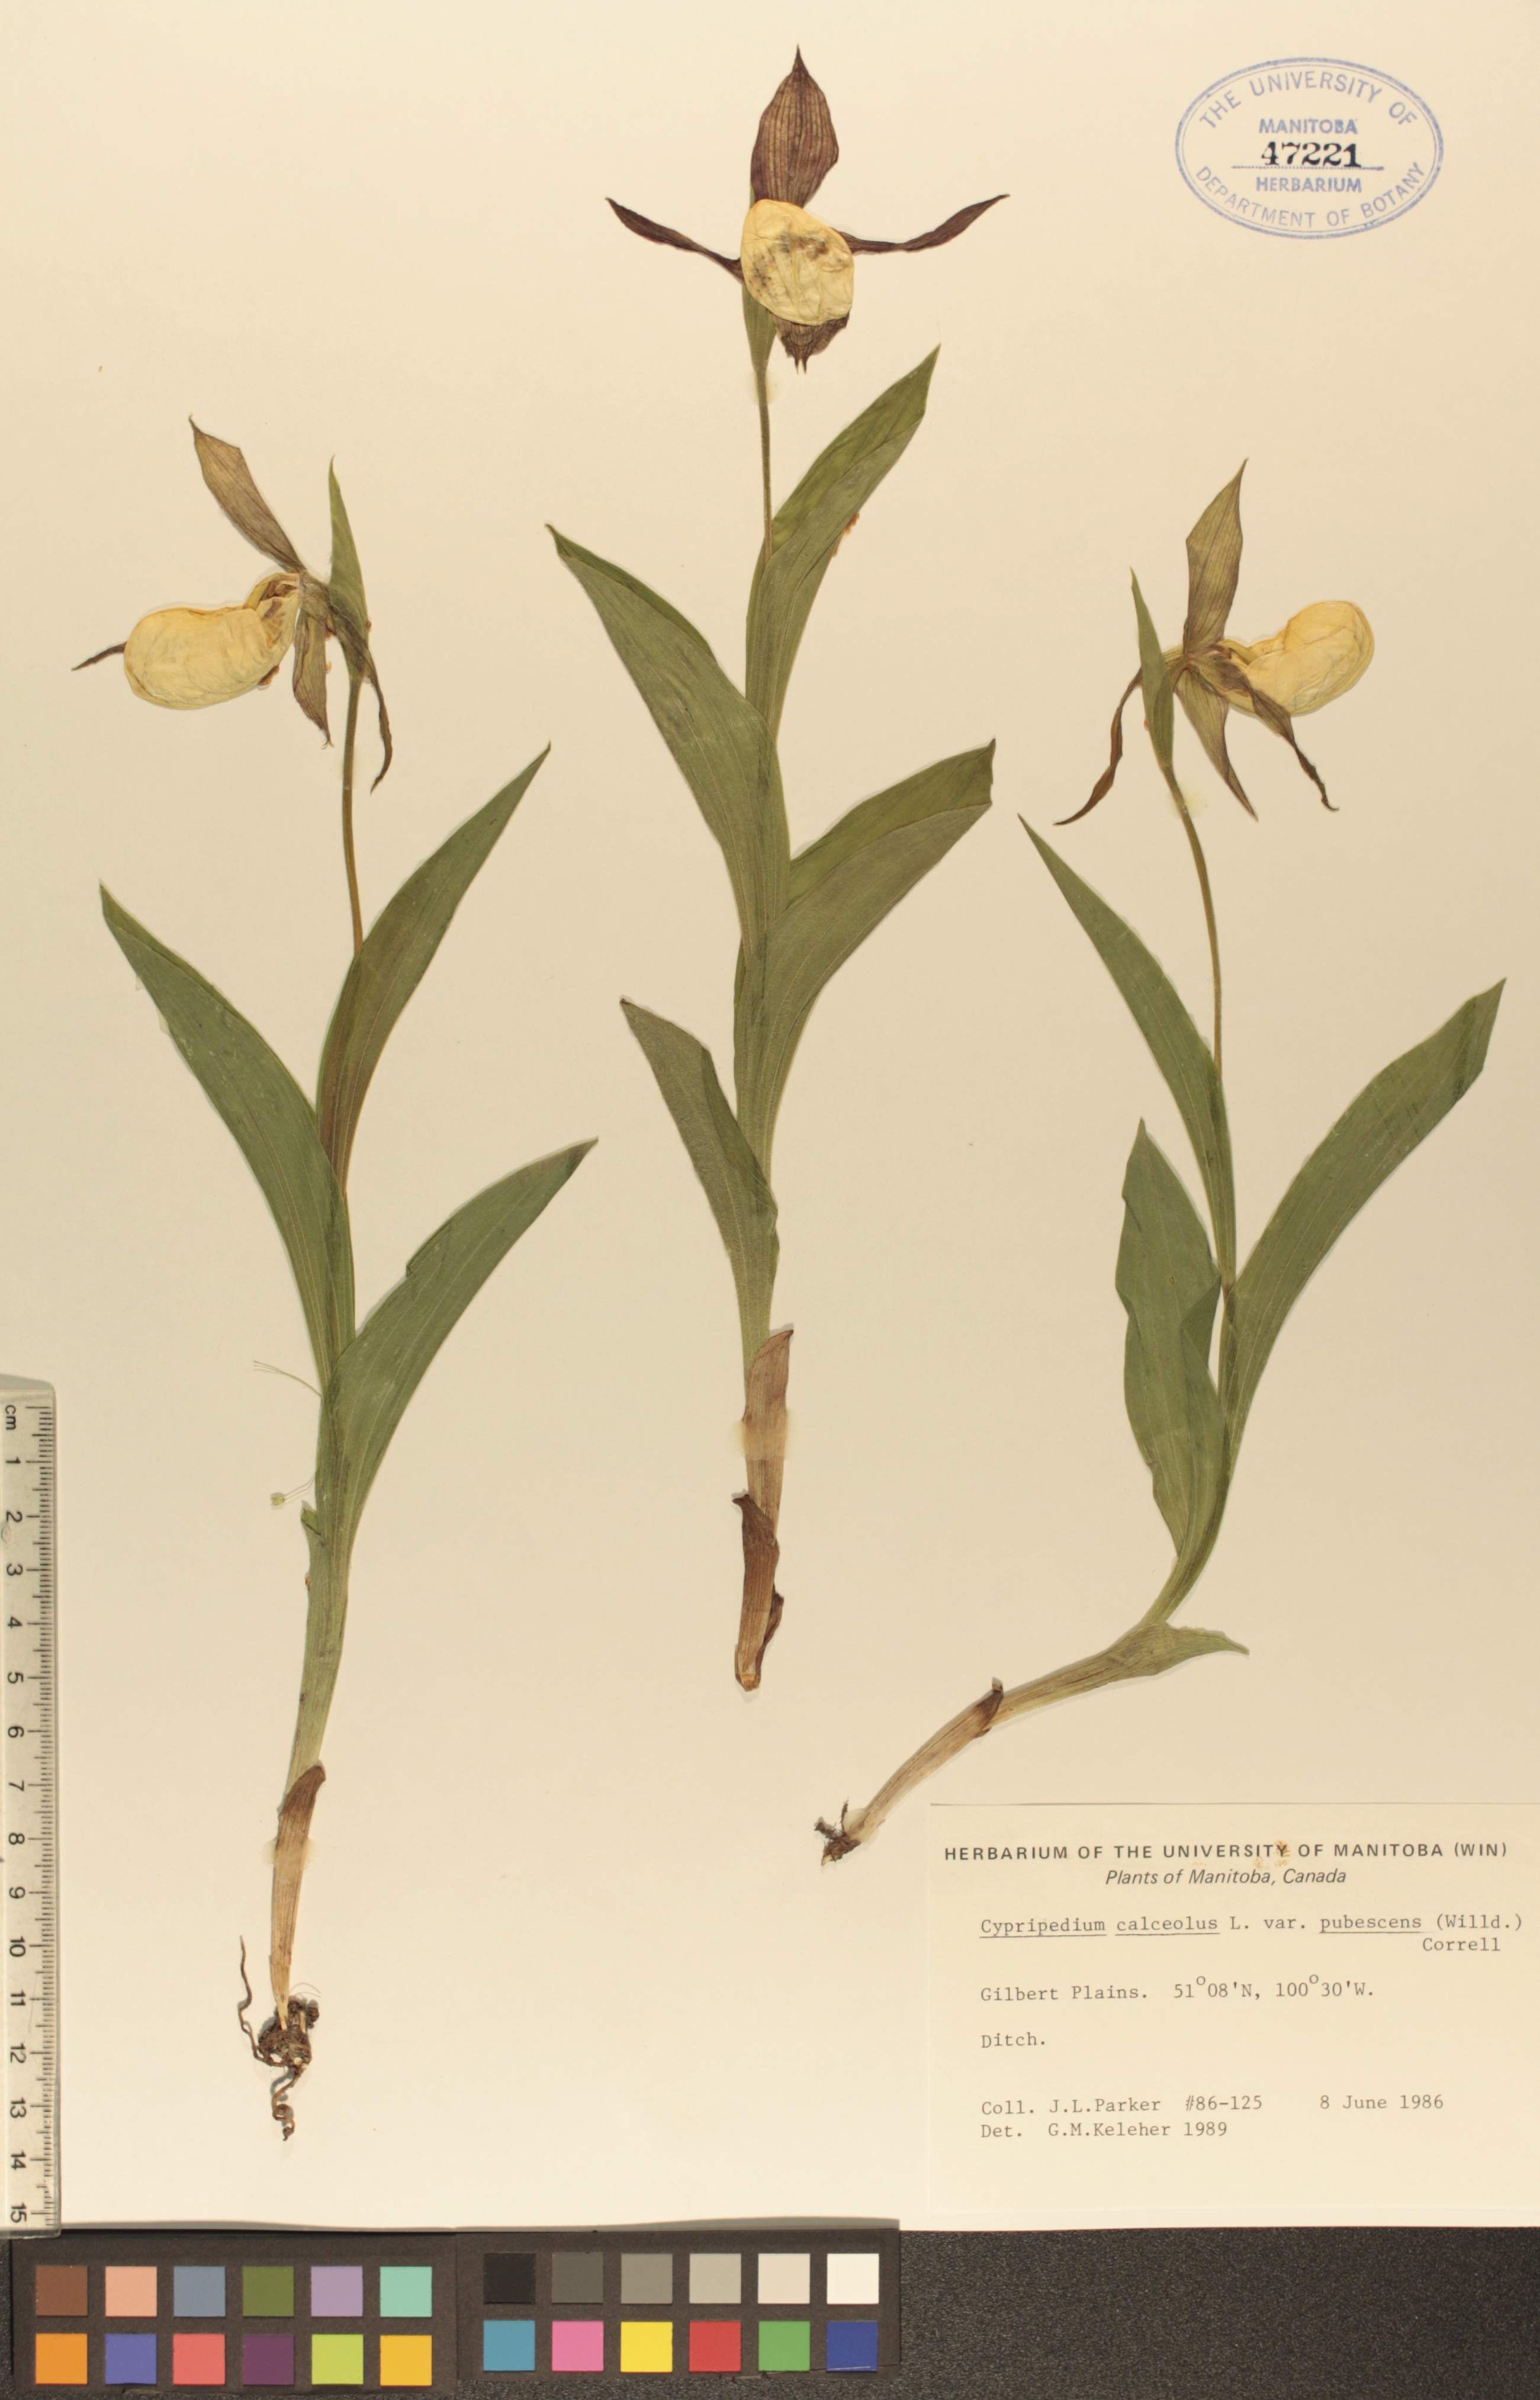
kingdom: Plantae
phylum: Tracheophyta
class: Liliopsida
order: Asparagales
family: Orchidaceae
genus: Cypripedium
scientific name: Cypripedium parviflorum
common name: American yellow lady's-slipper
